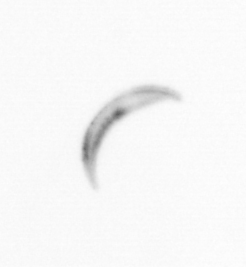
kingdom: Chromista
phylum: Ochrophyta
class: Bacillariophyceae
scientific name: Bacillariophyceae
